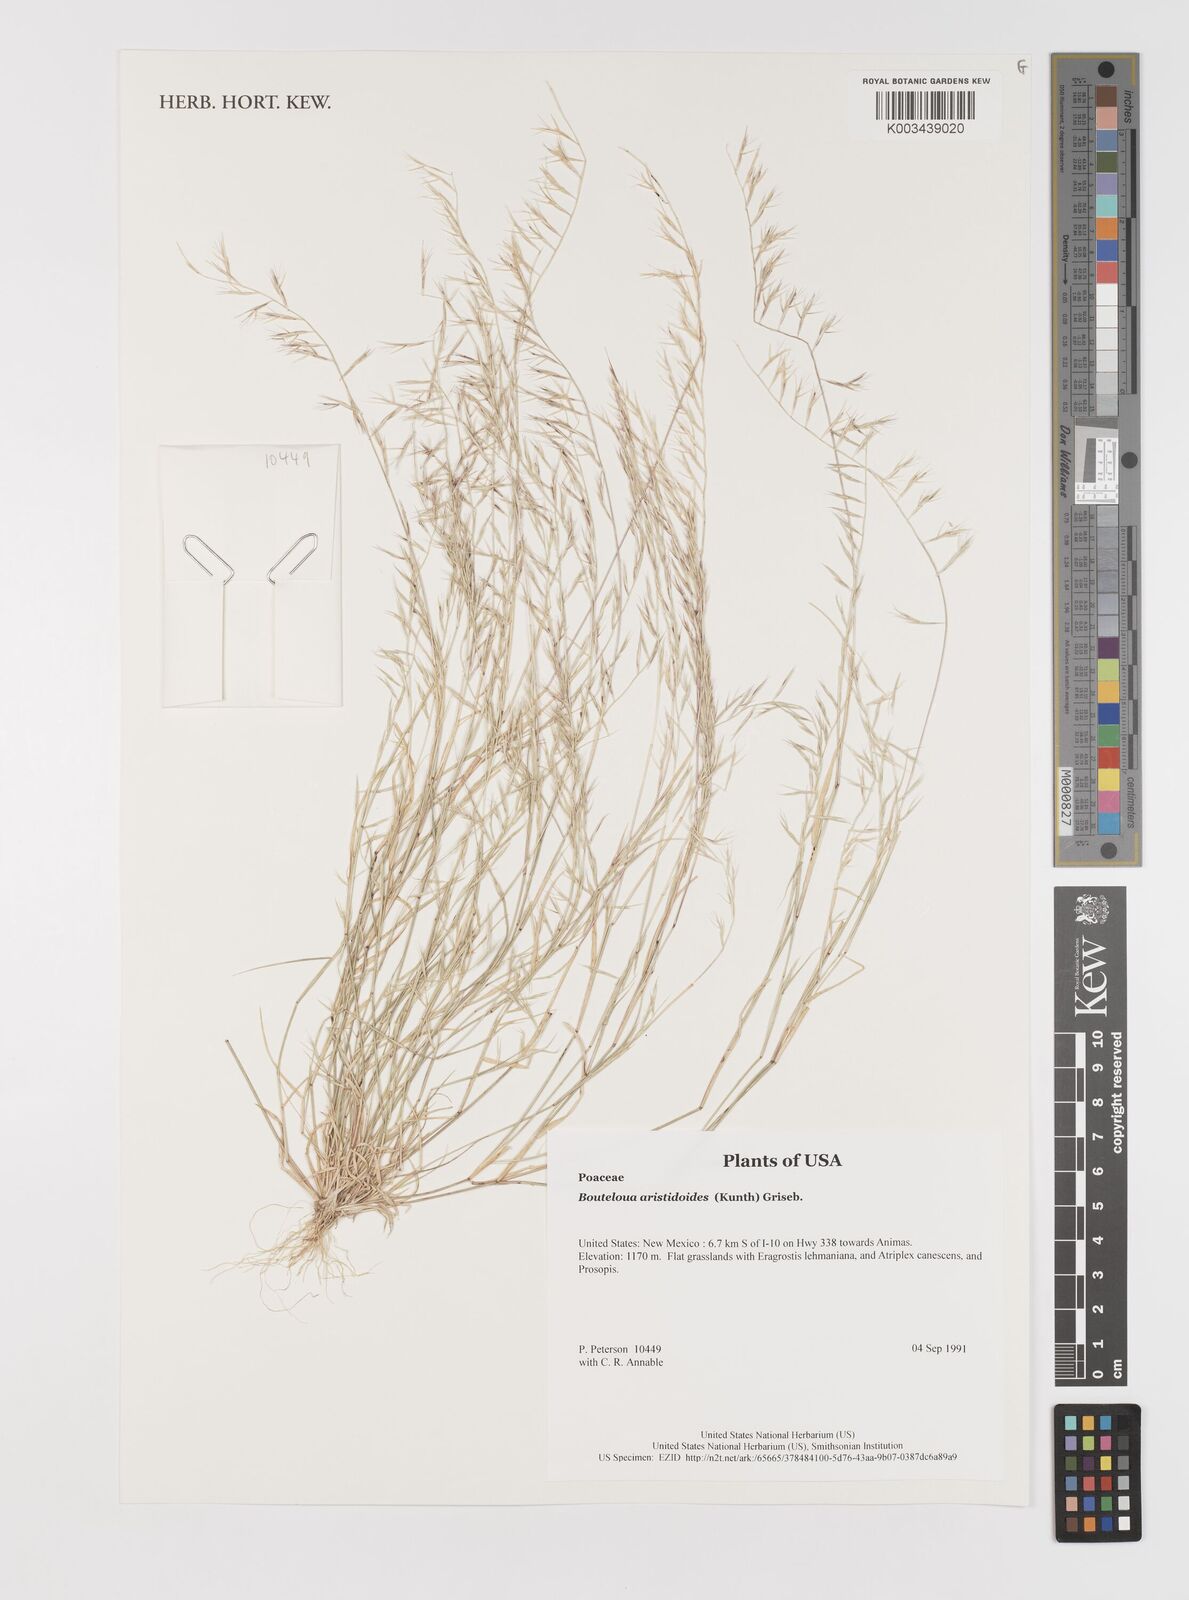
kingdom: Plantae
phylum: Tracheophyta
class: Liliopsida
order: Poales
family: Poaceae
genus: Bouteloua
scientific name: Bouteloua aristidoides
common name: Needle grama
